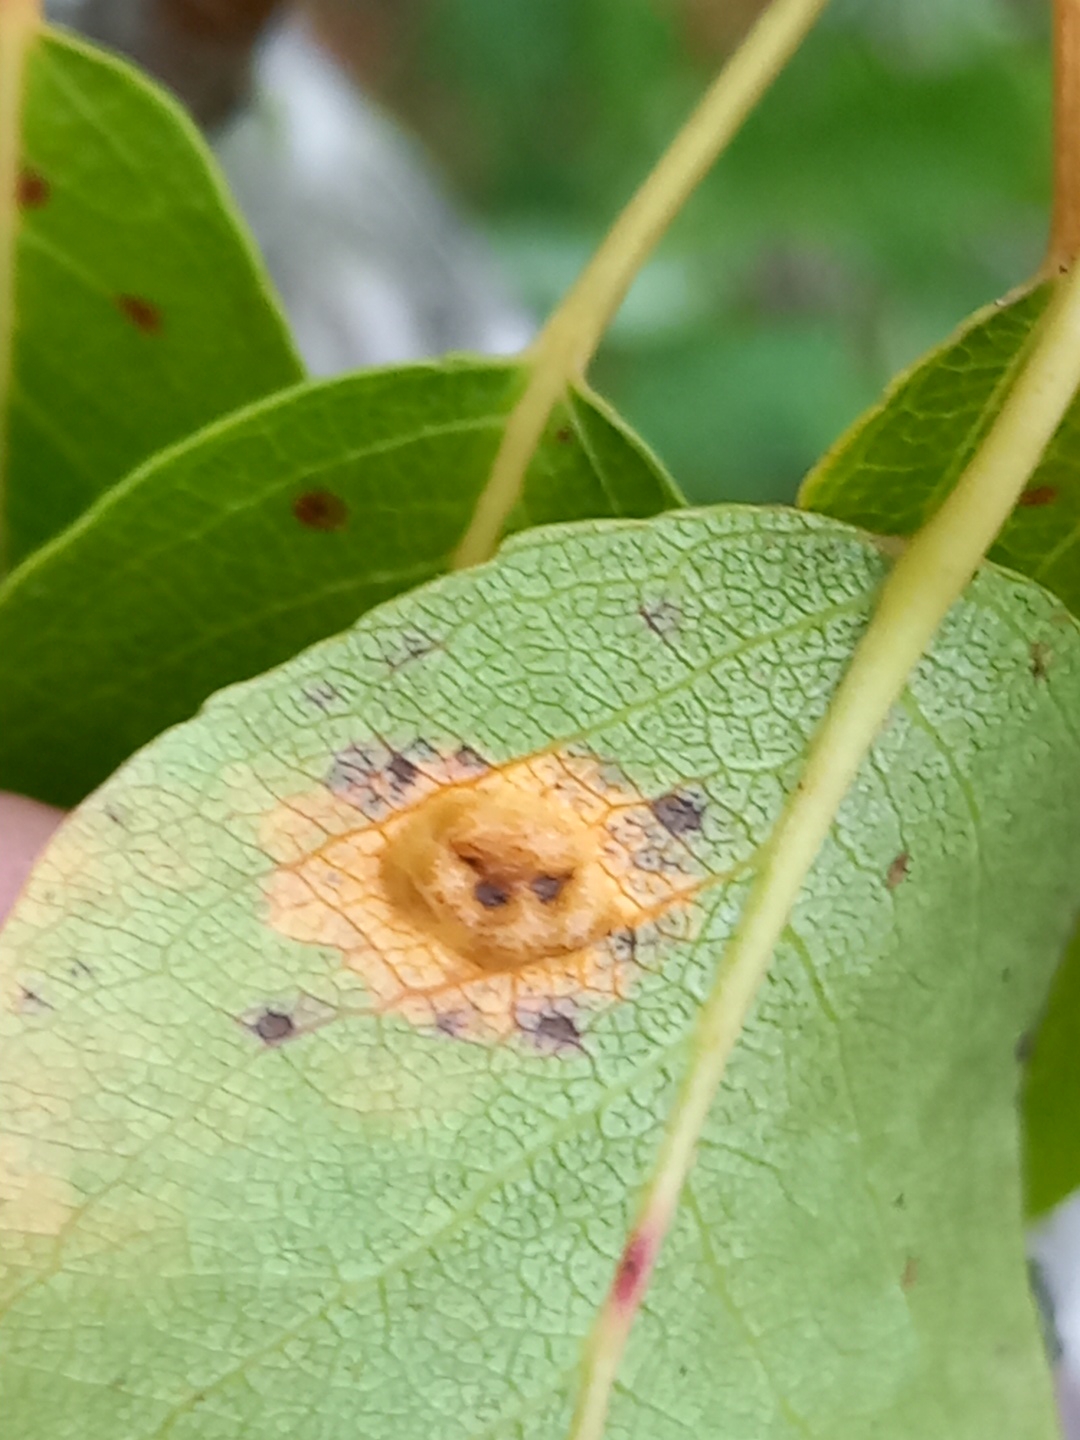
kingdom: Fungi
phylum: Basidiomycota
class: Pucciniomycetes
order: Pucciniales
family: Gymnosporangiaceae
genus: Gymnosporangium
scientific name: Gymnosporangium sabinae
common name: pæregitter-bævrerust
